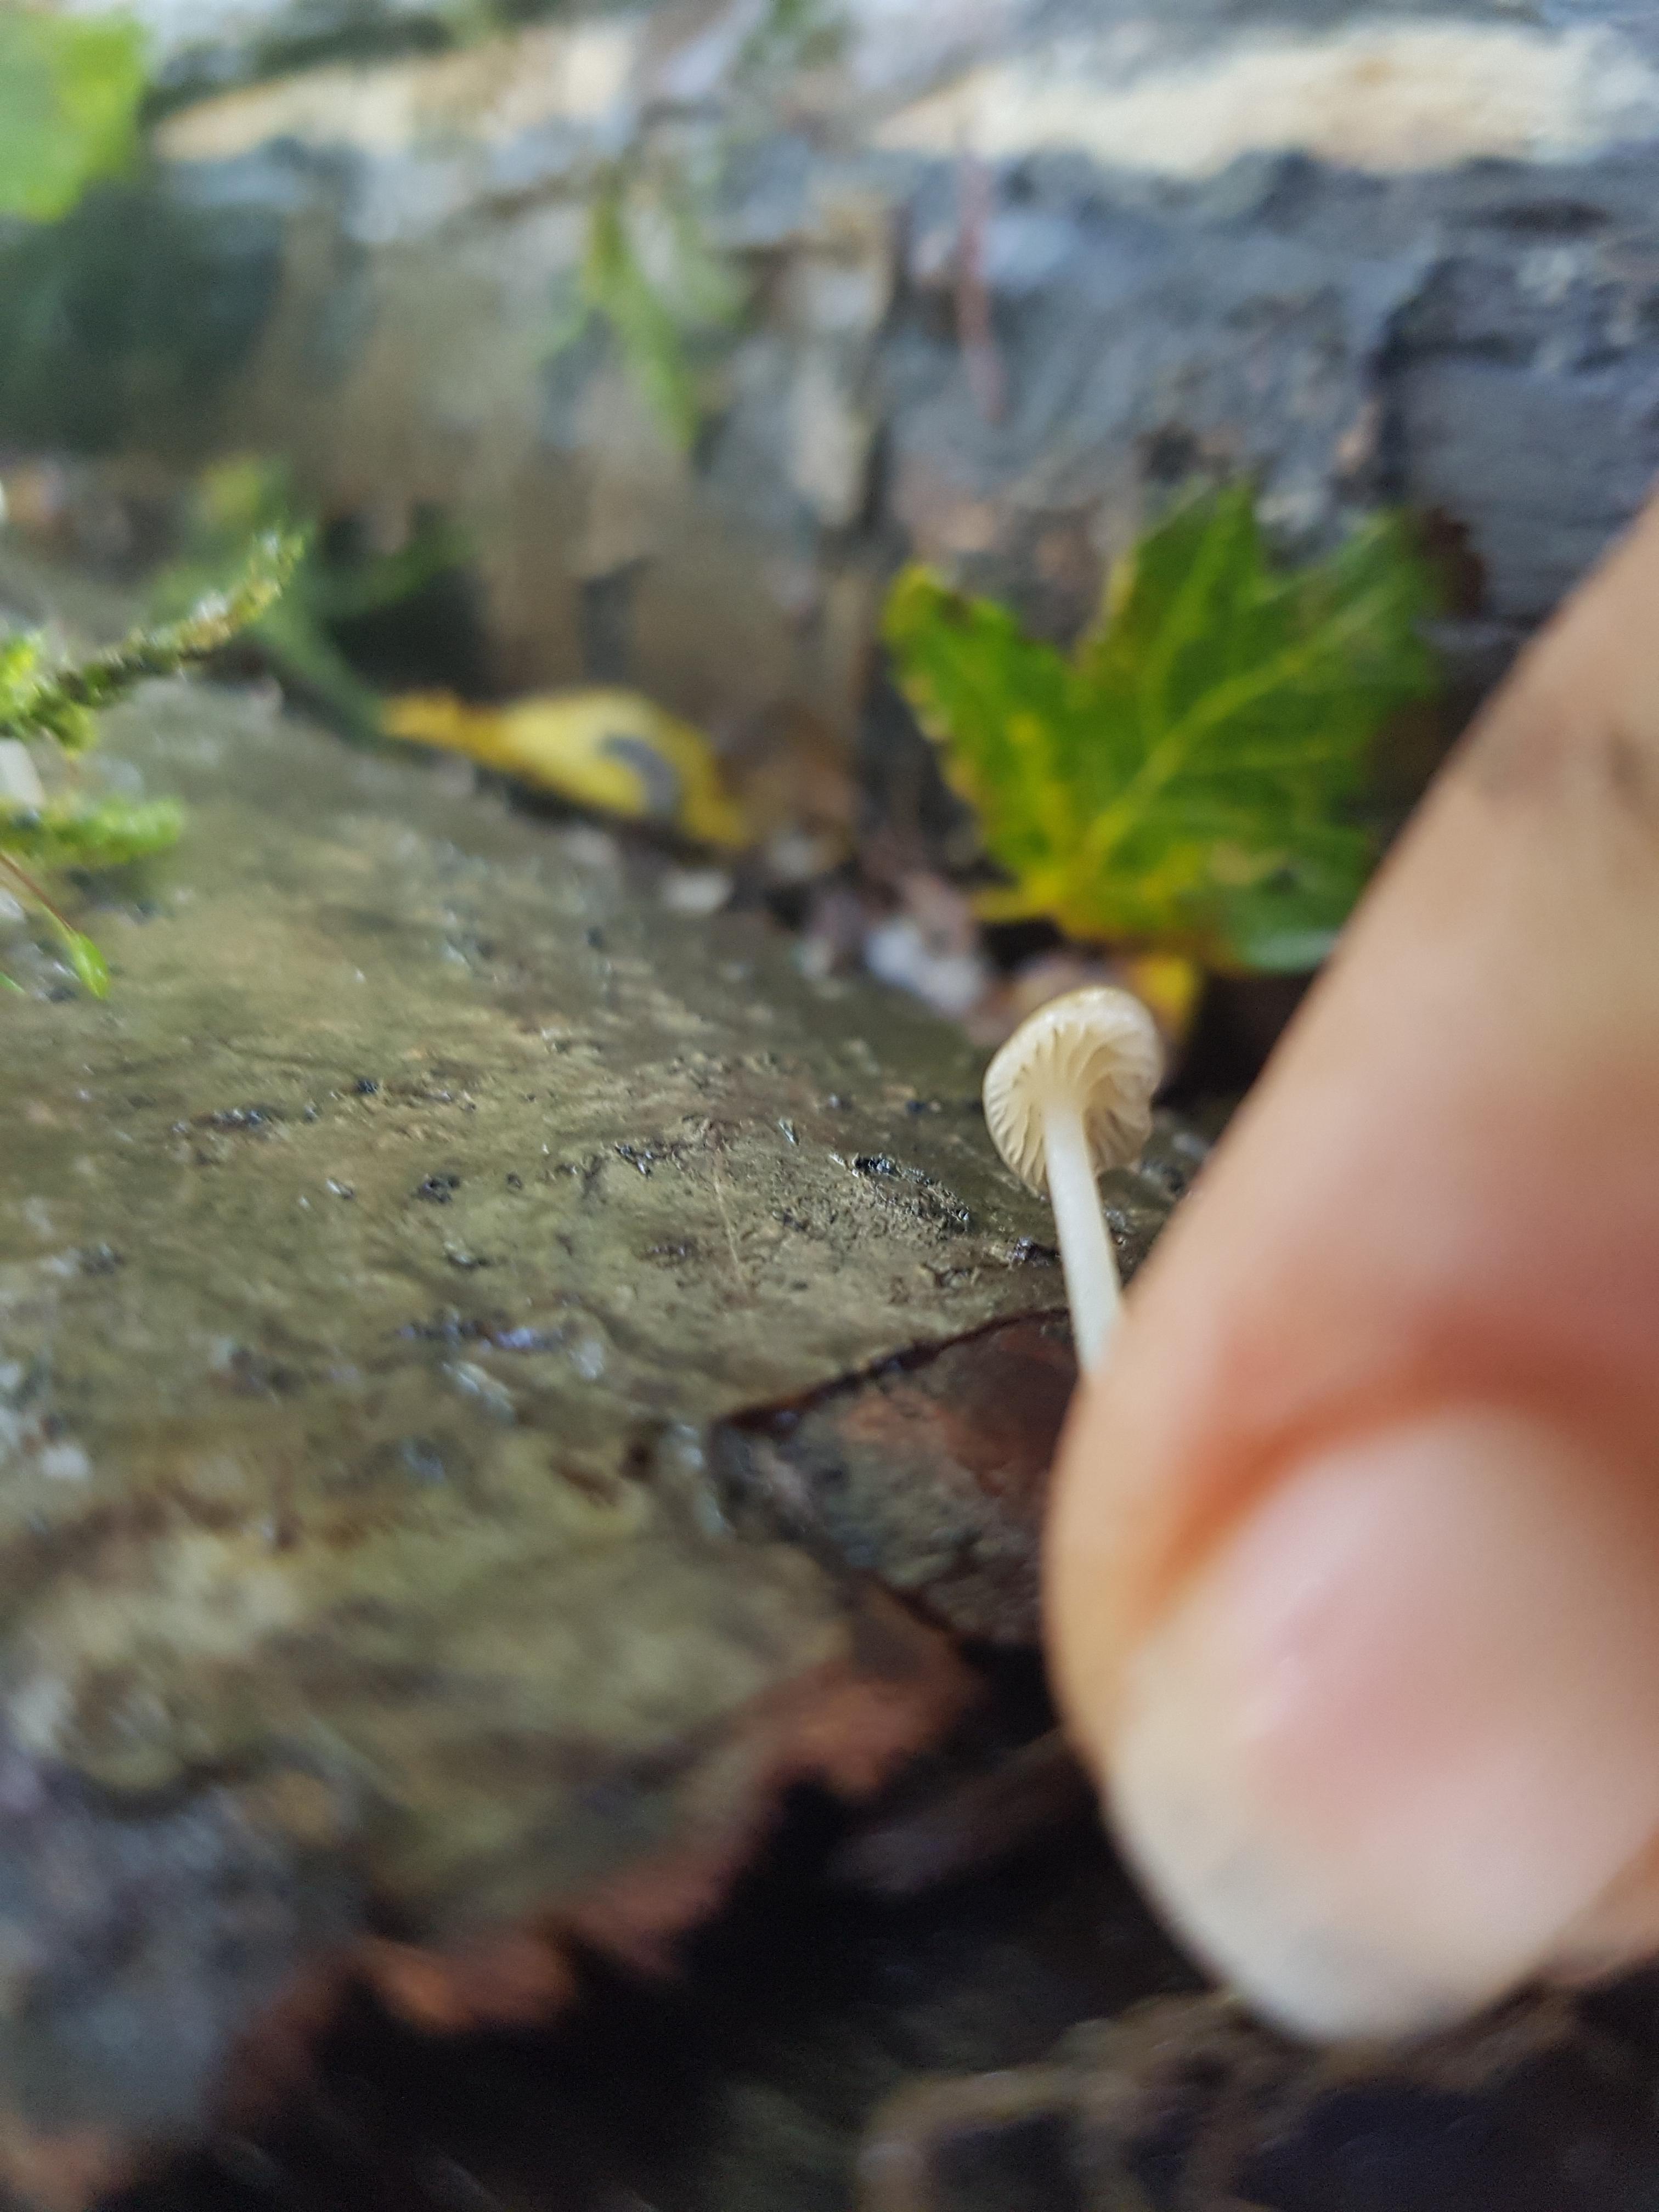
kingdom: Fungi
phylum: Basidiomycota
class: Agaricomycetes
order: Agaricales
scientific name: Agaricales
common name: champignonordenen
